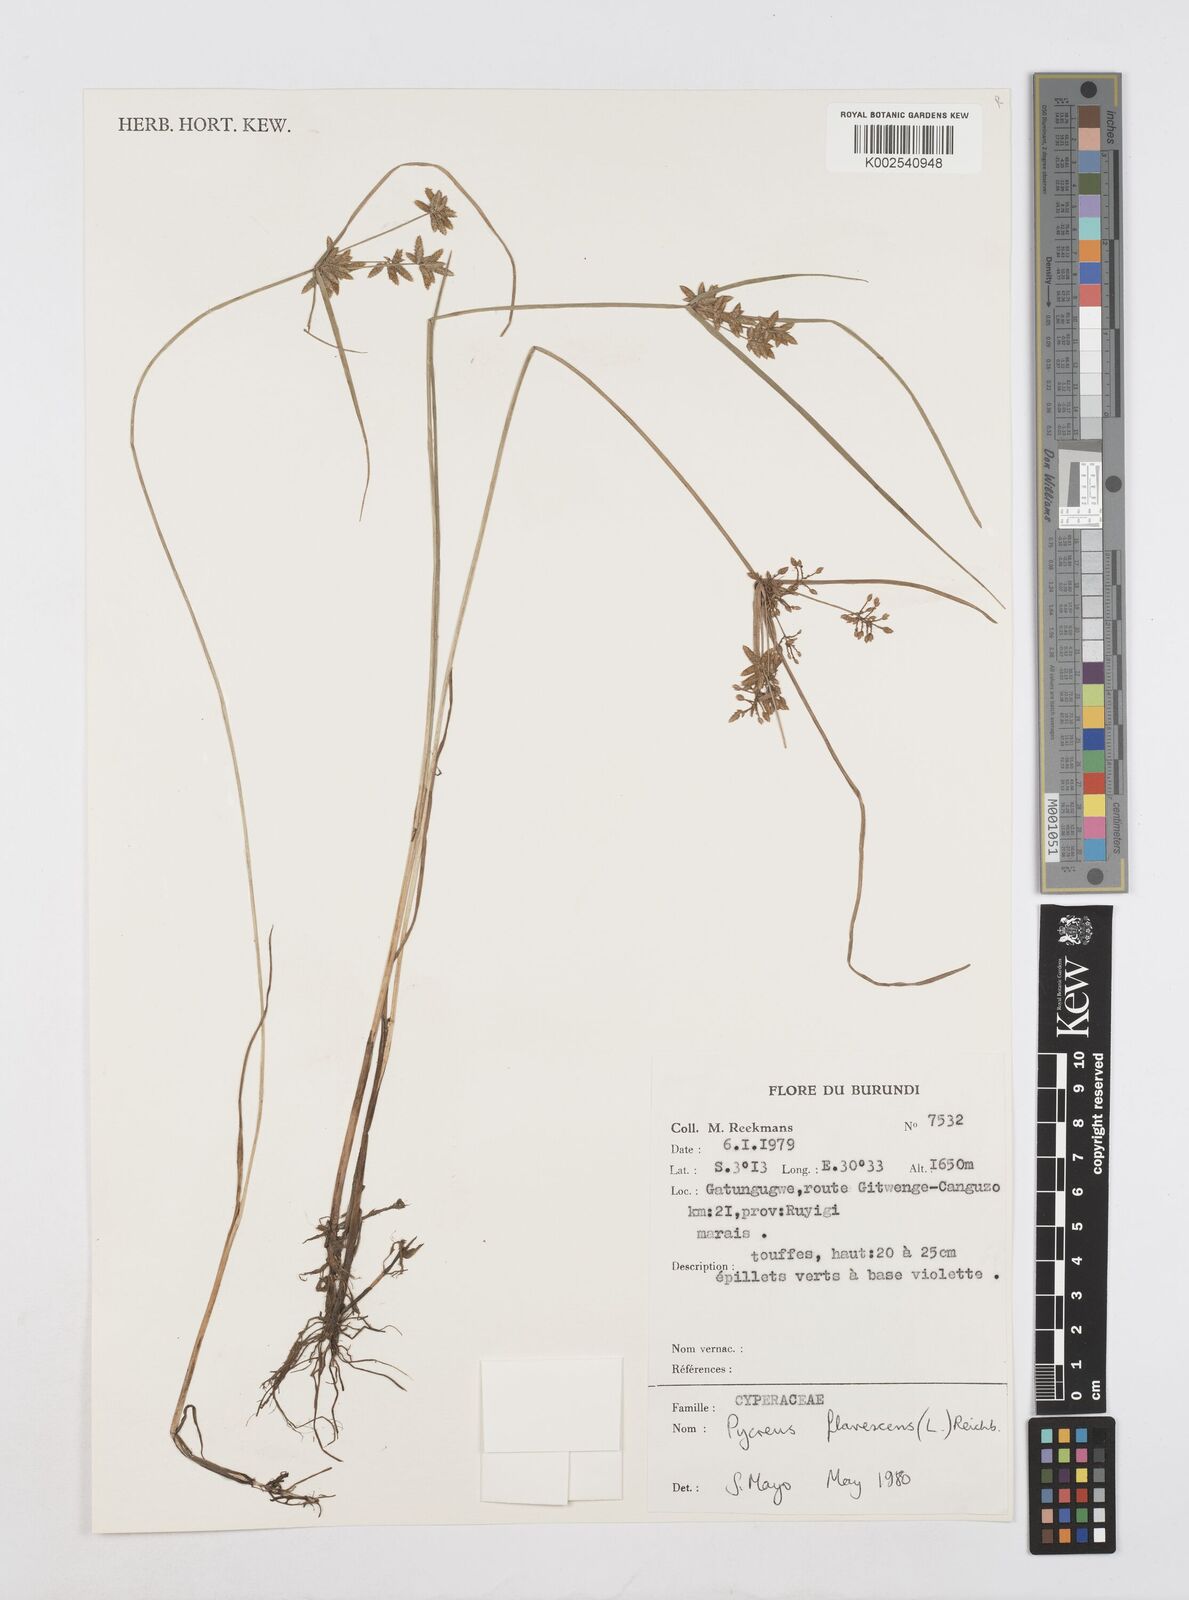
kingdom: Plantae
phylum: Tracheophyta
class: Liliopsida
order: Poales
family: Cyperaceae
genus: Cyperus
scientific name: Cyperus flavescens
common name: Yellow galingale
